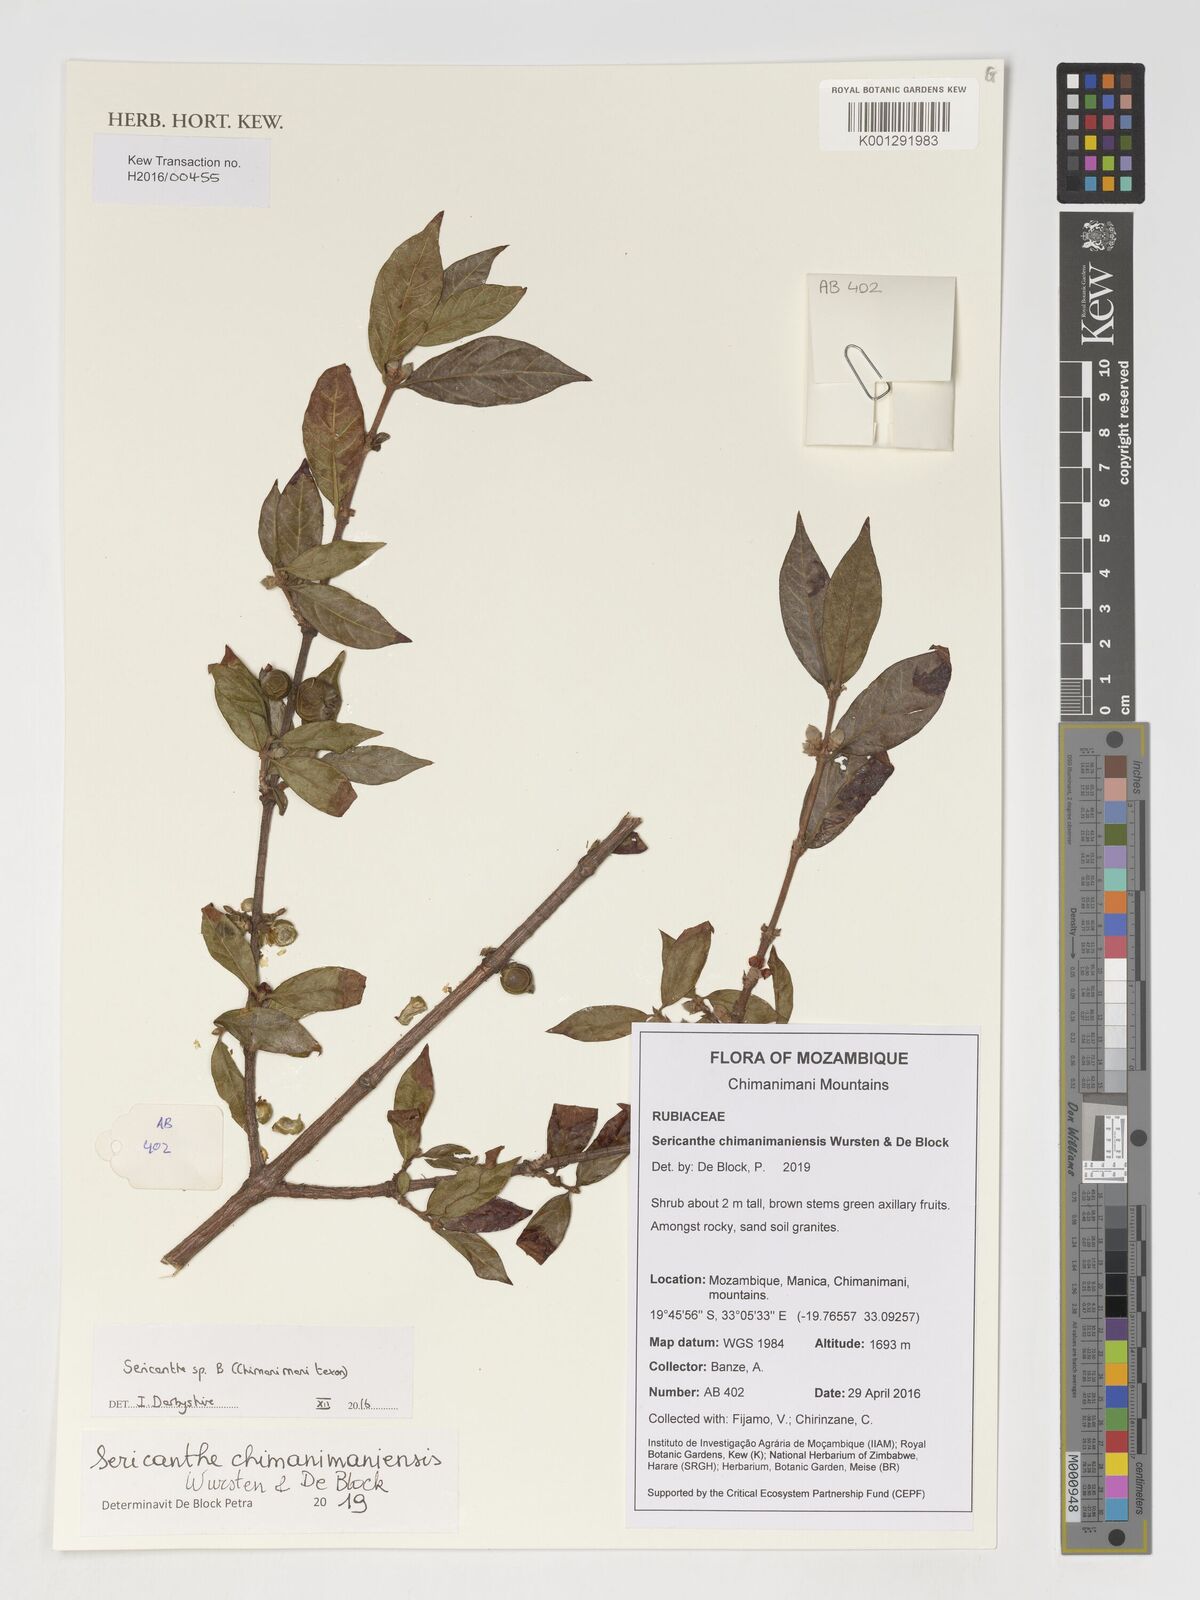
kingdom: Plantae
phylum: Tracheophyta
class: Magnoliopsida
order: Gentianales
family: Rubiaceae
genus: Sericanthe
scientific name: Sericanthe
